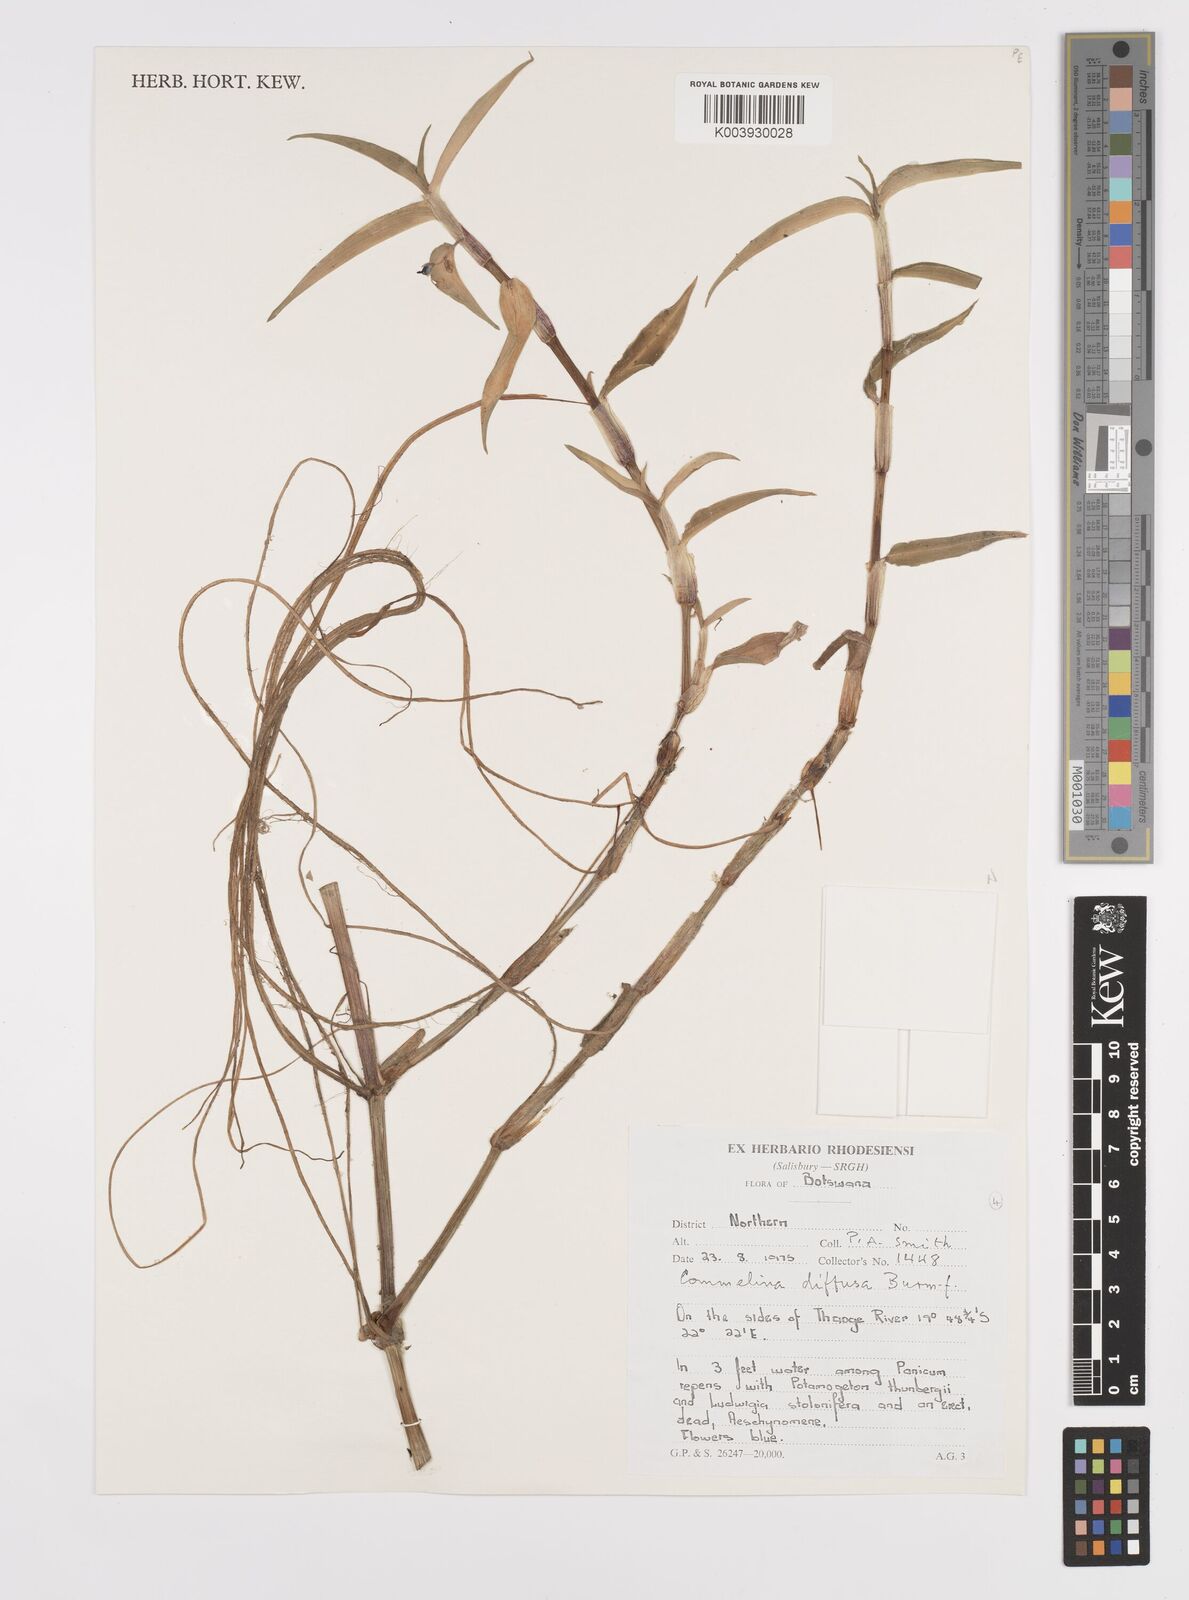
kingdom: Plantae
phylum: Tracheophyta
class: Liliopsida
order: Commelinales
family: Commelinaceae
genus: Commelina
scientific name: Commelina diffusa
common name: Climbing dayflower
